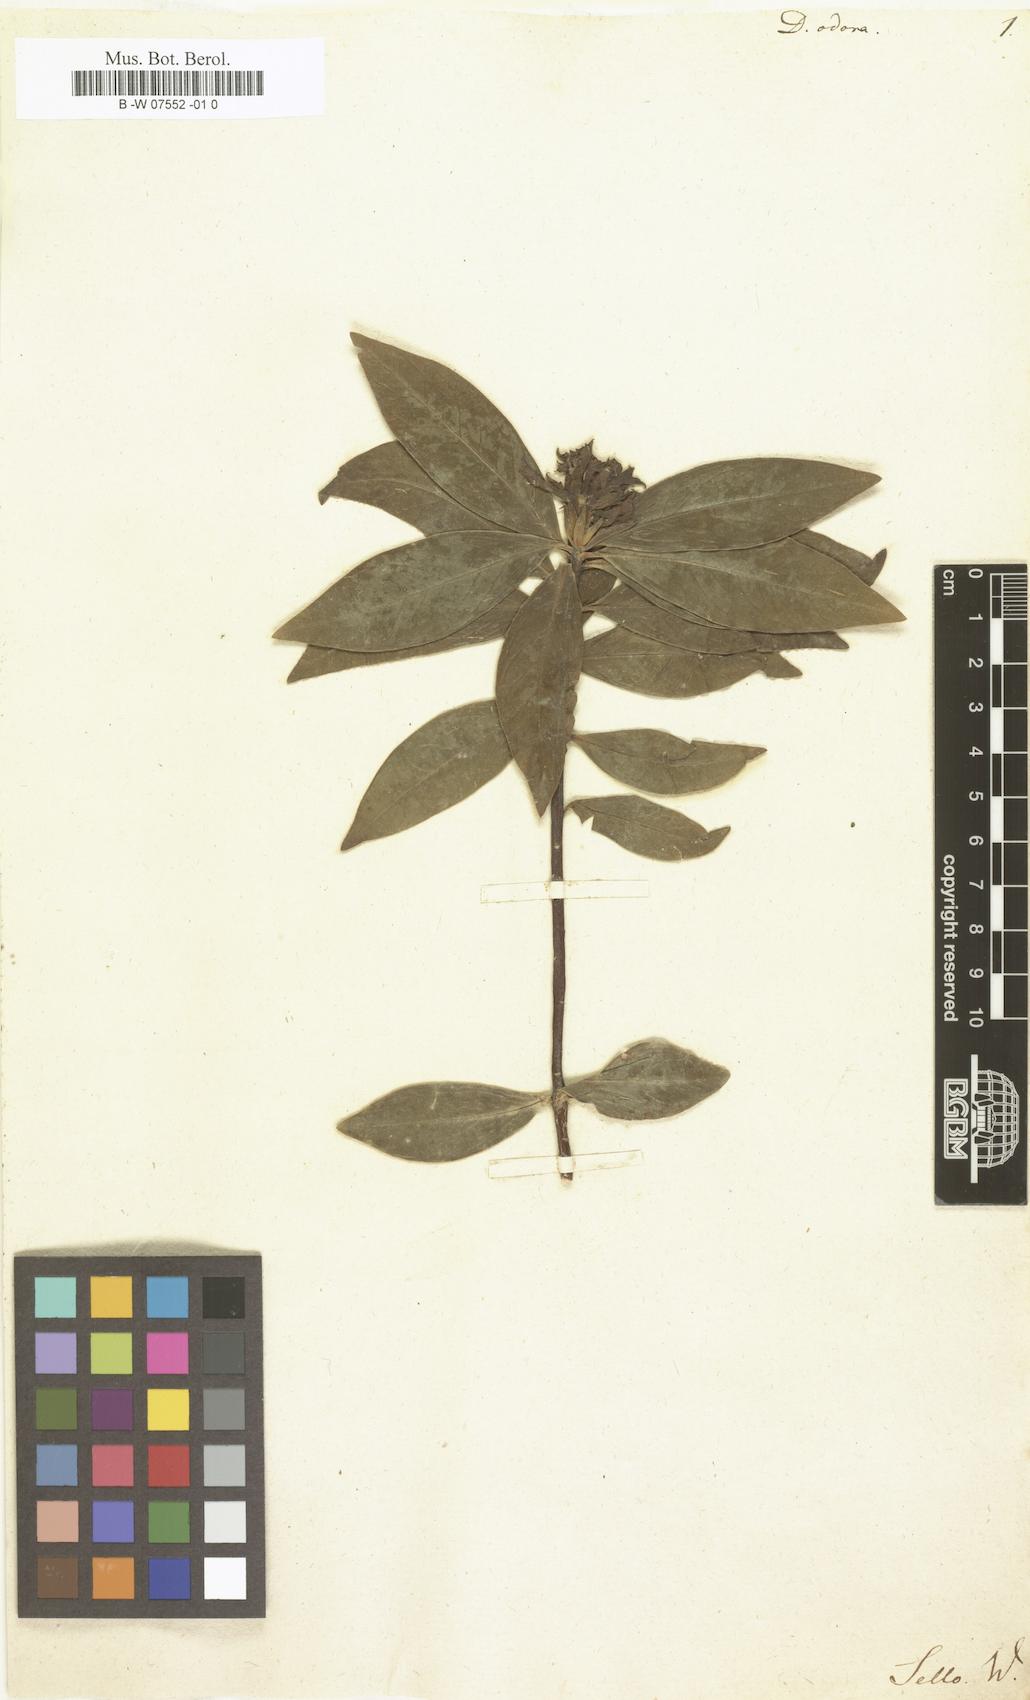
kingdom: Plantae
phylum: Tracheophyta
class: Magnoliopsida
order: Malvales
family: Thymelaeaceae
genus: Daphne
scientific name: Daphne odora
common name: Winter daphne
